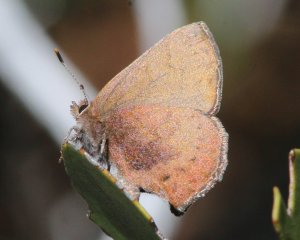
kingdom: Animalia
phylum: Arthropoda
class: Insecta
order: Lepidoptera
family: Lycaenidae
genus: Incisalia
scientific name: Incisalia irioides
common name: Brown Elfin
